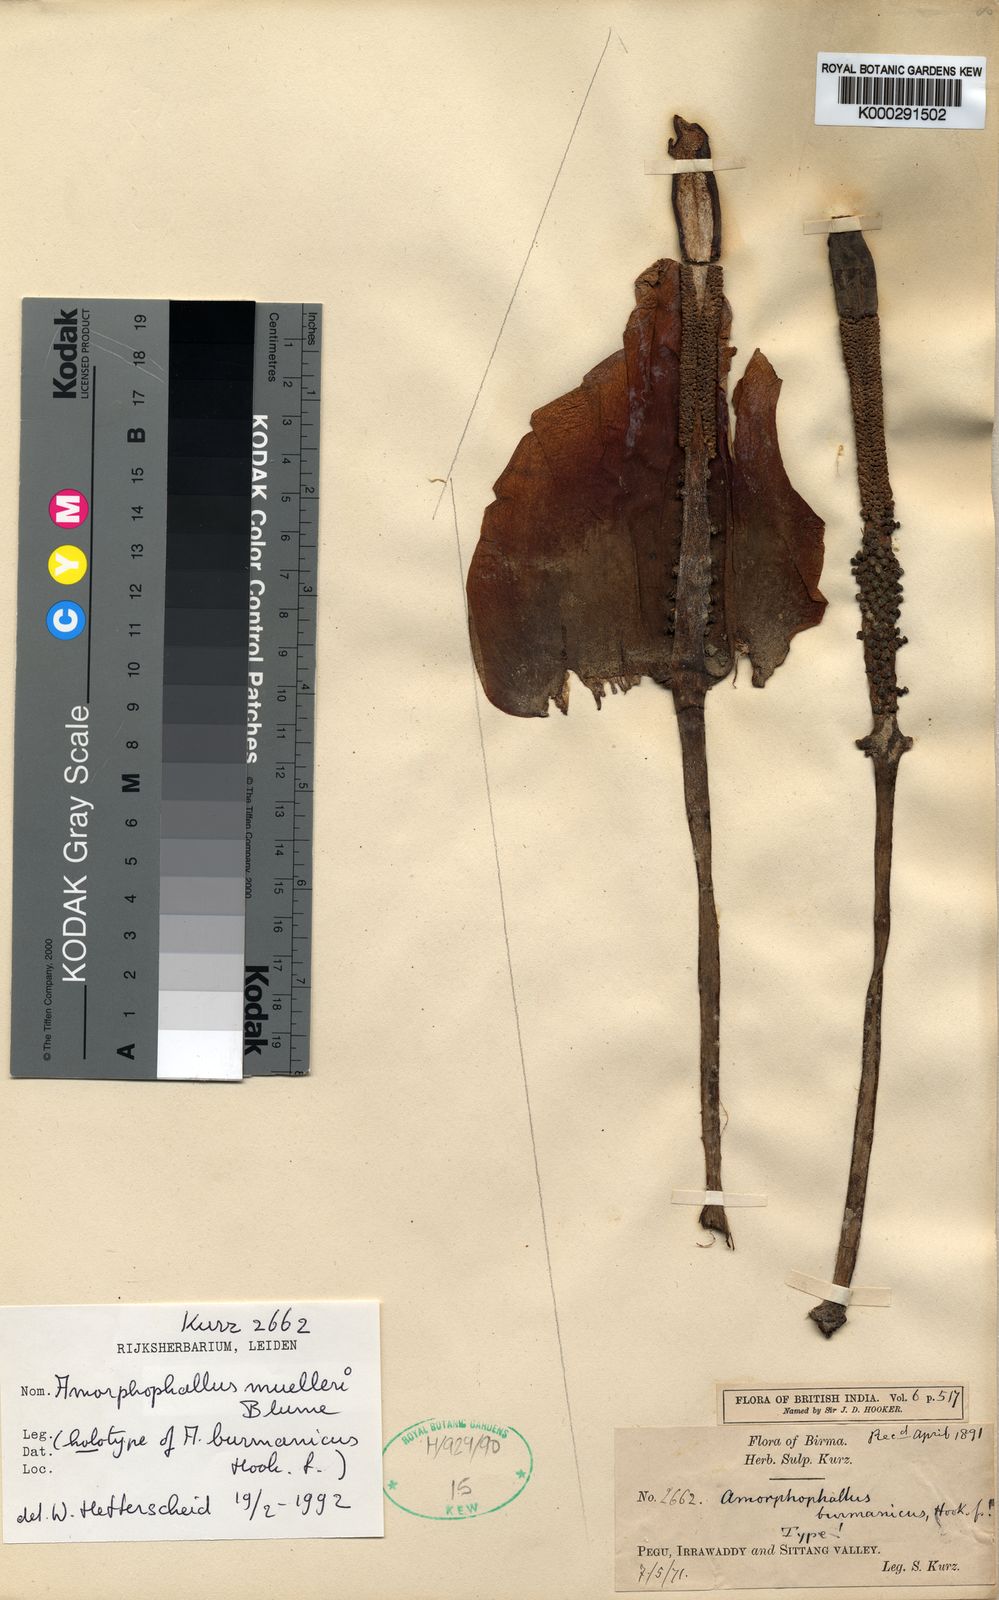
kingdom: Plantae
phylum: Tracheophyta
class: Liliopsida
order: Alismatales
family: Araceae
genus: Amorphophallus
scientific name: Amorphophallus muelleri
